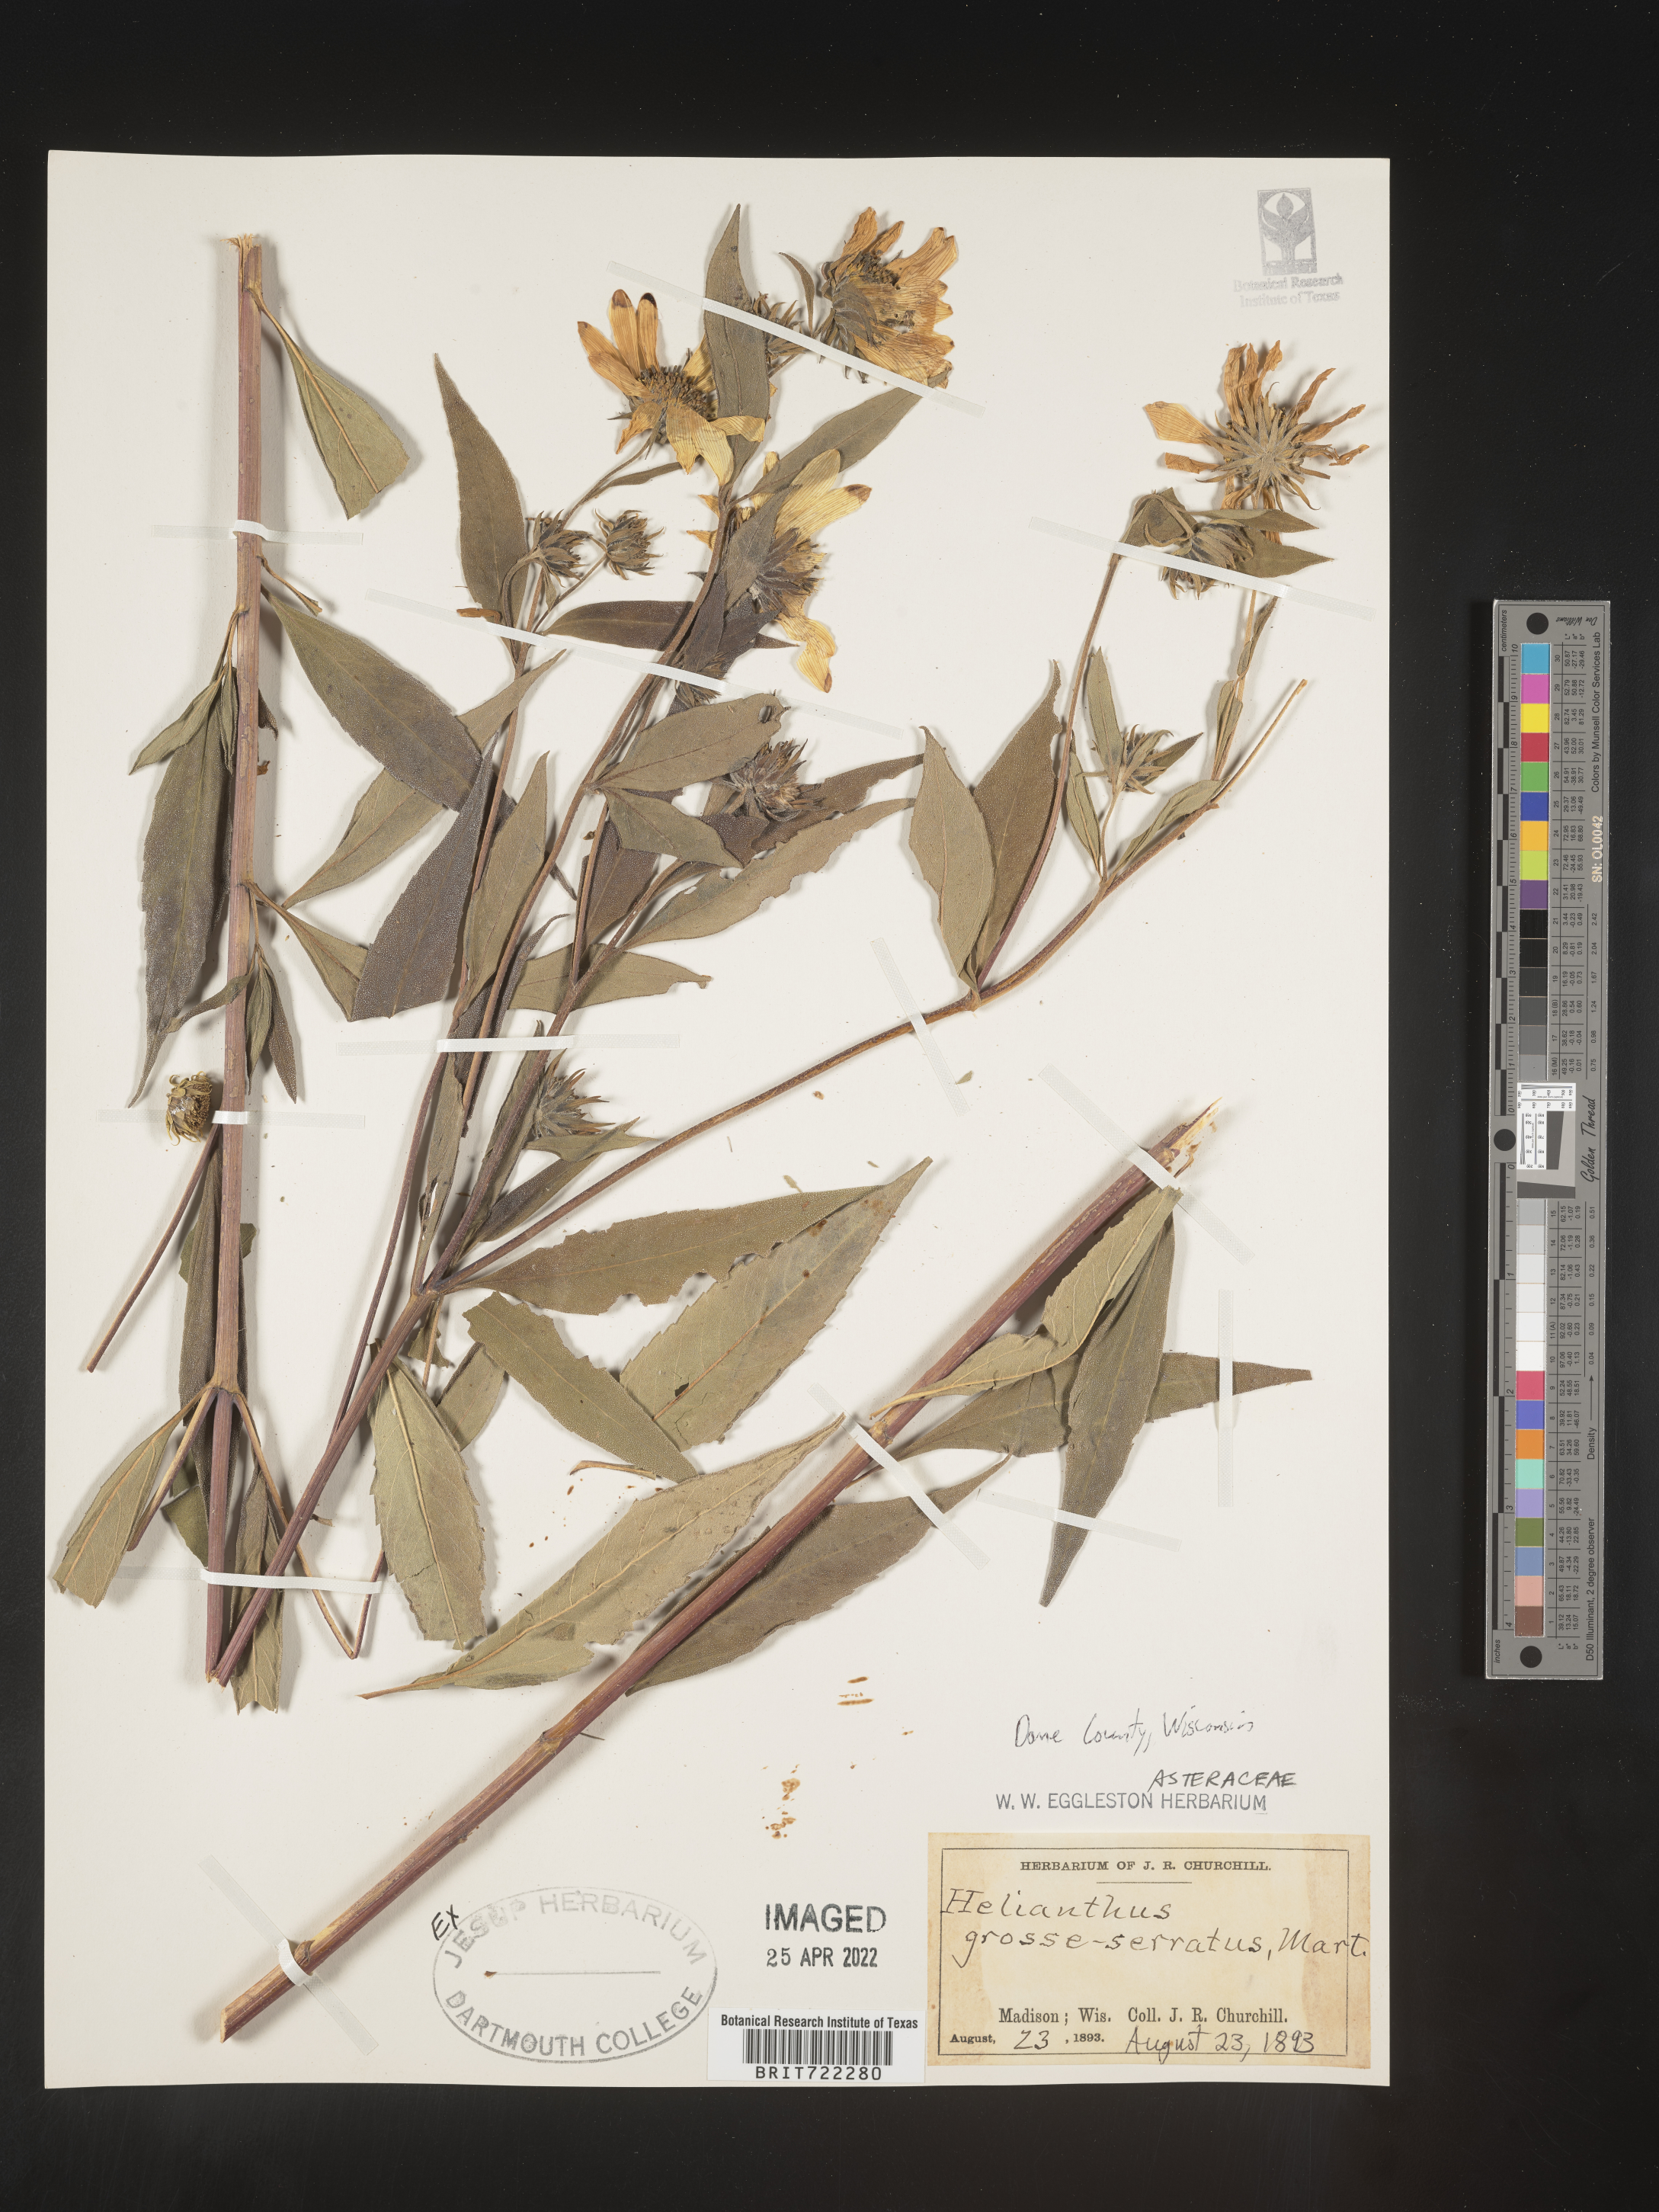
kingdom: Plantae
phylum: Tracheophyta
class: Magnoliopsida
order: Asterales
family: Asteraceae
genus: Helianthus
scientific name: Helianthus grosseserratus
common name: Sawtooth sunflower
